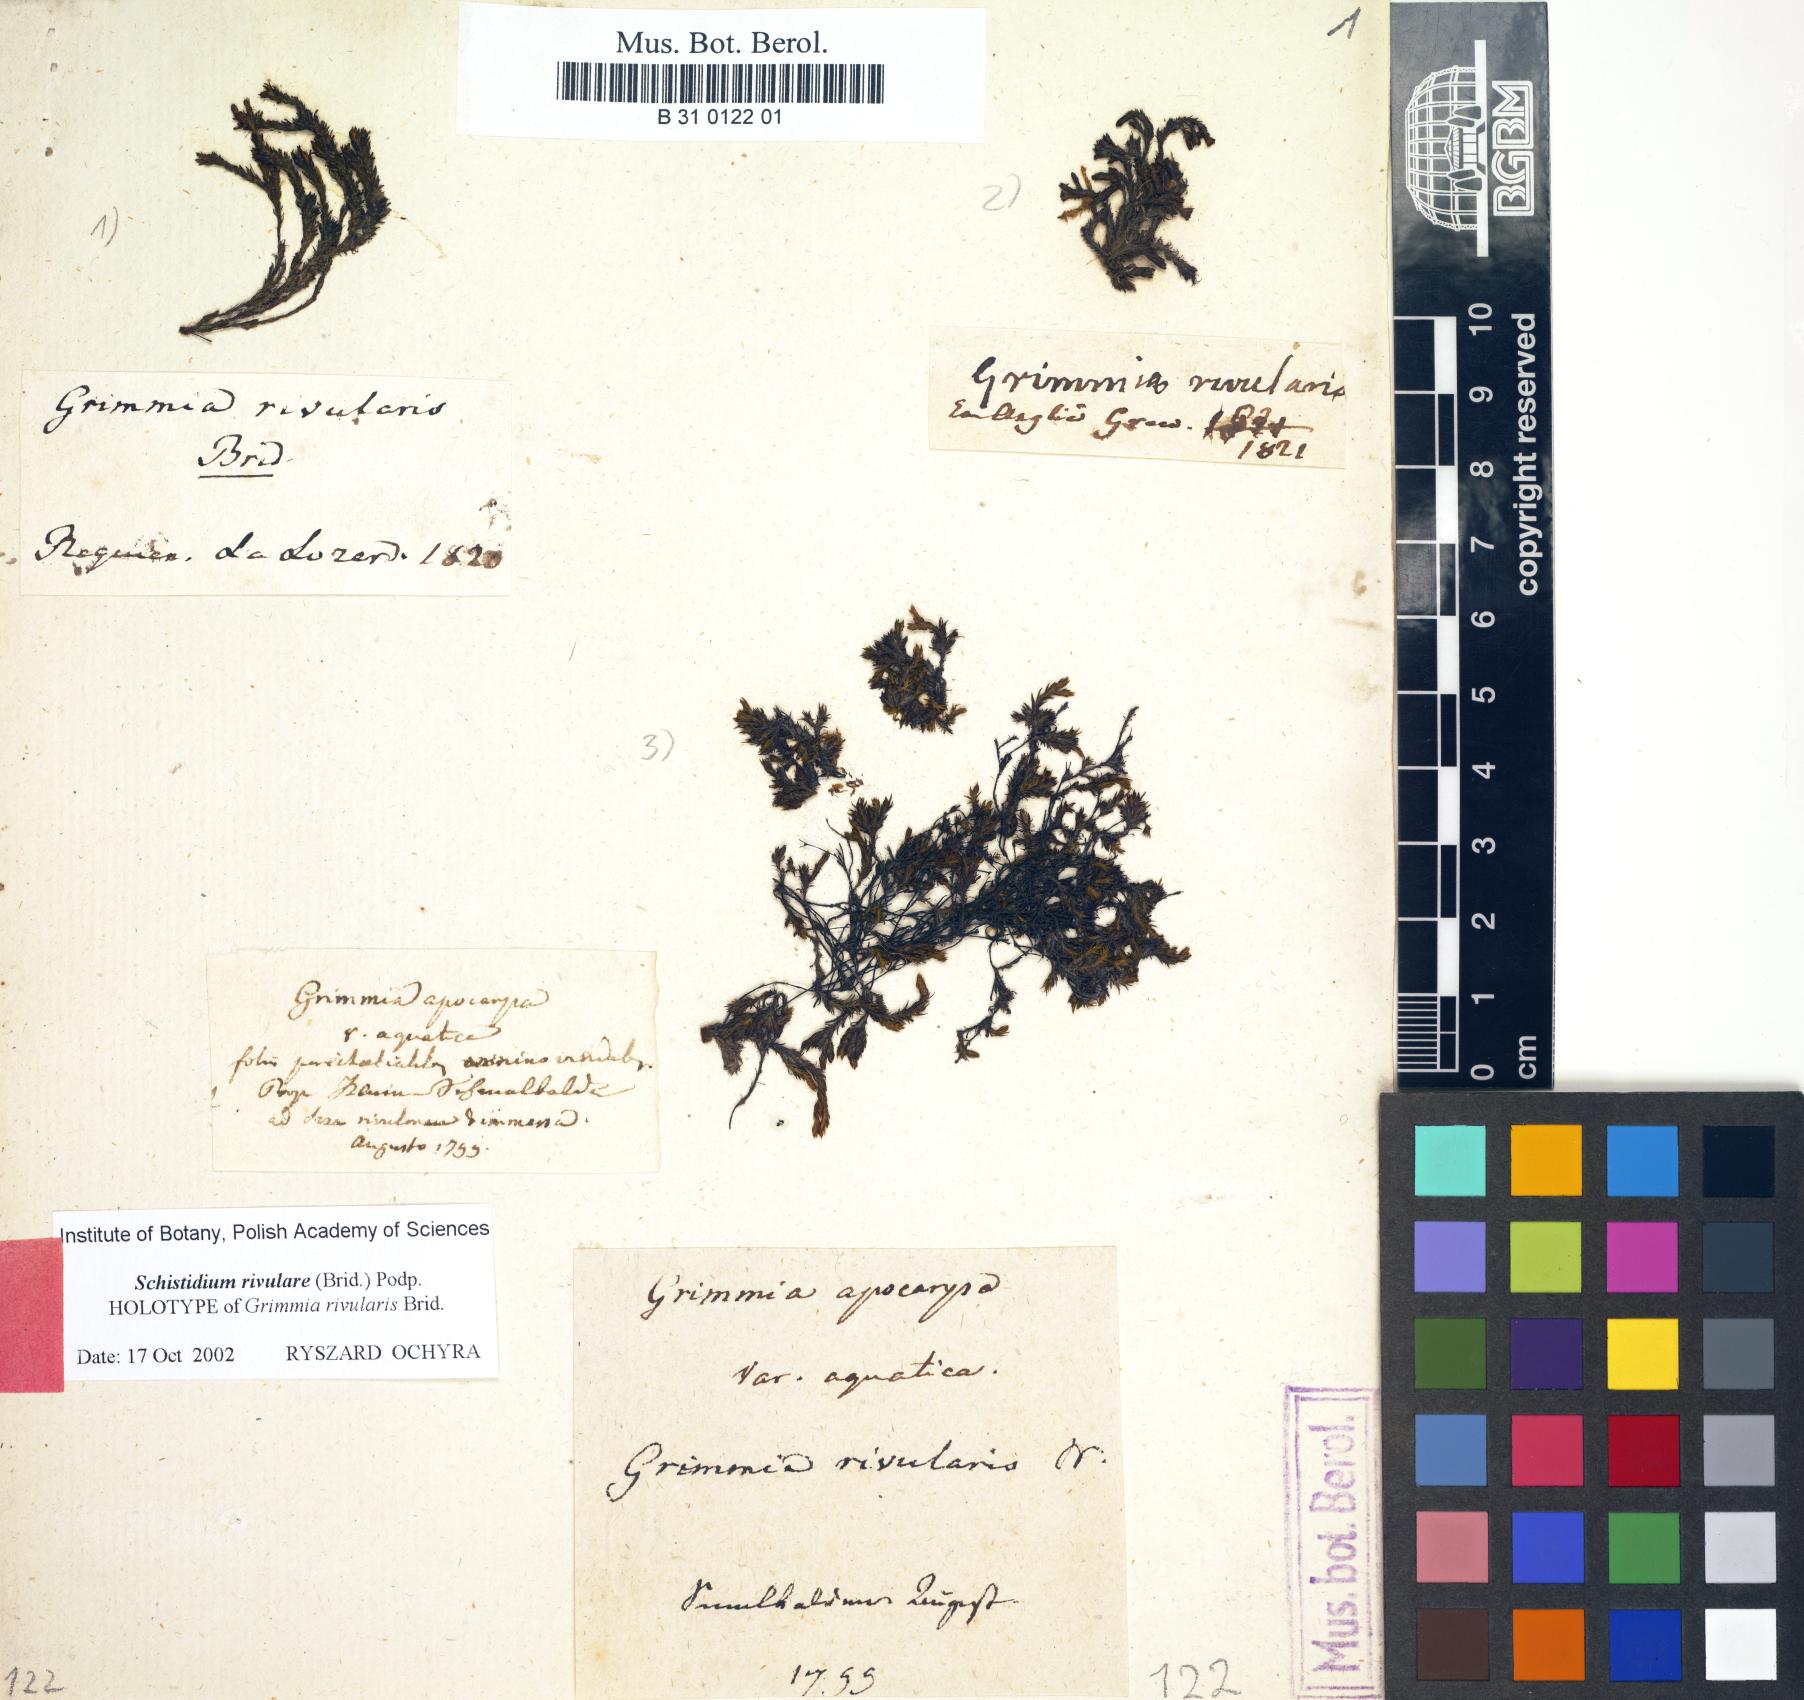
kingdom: Plantae
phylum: Bryophyta
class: Bryopsida
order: Grimmiales
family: Grimmiaceae
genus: Schistidium
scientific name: Schistidium rivulare
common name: River bloom moss
